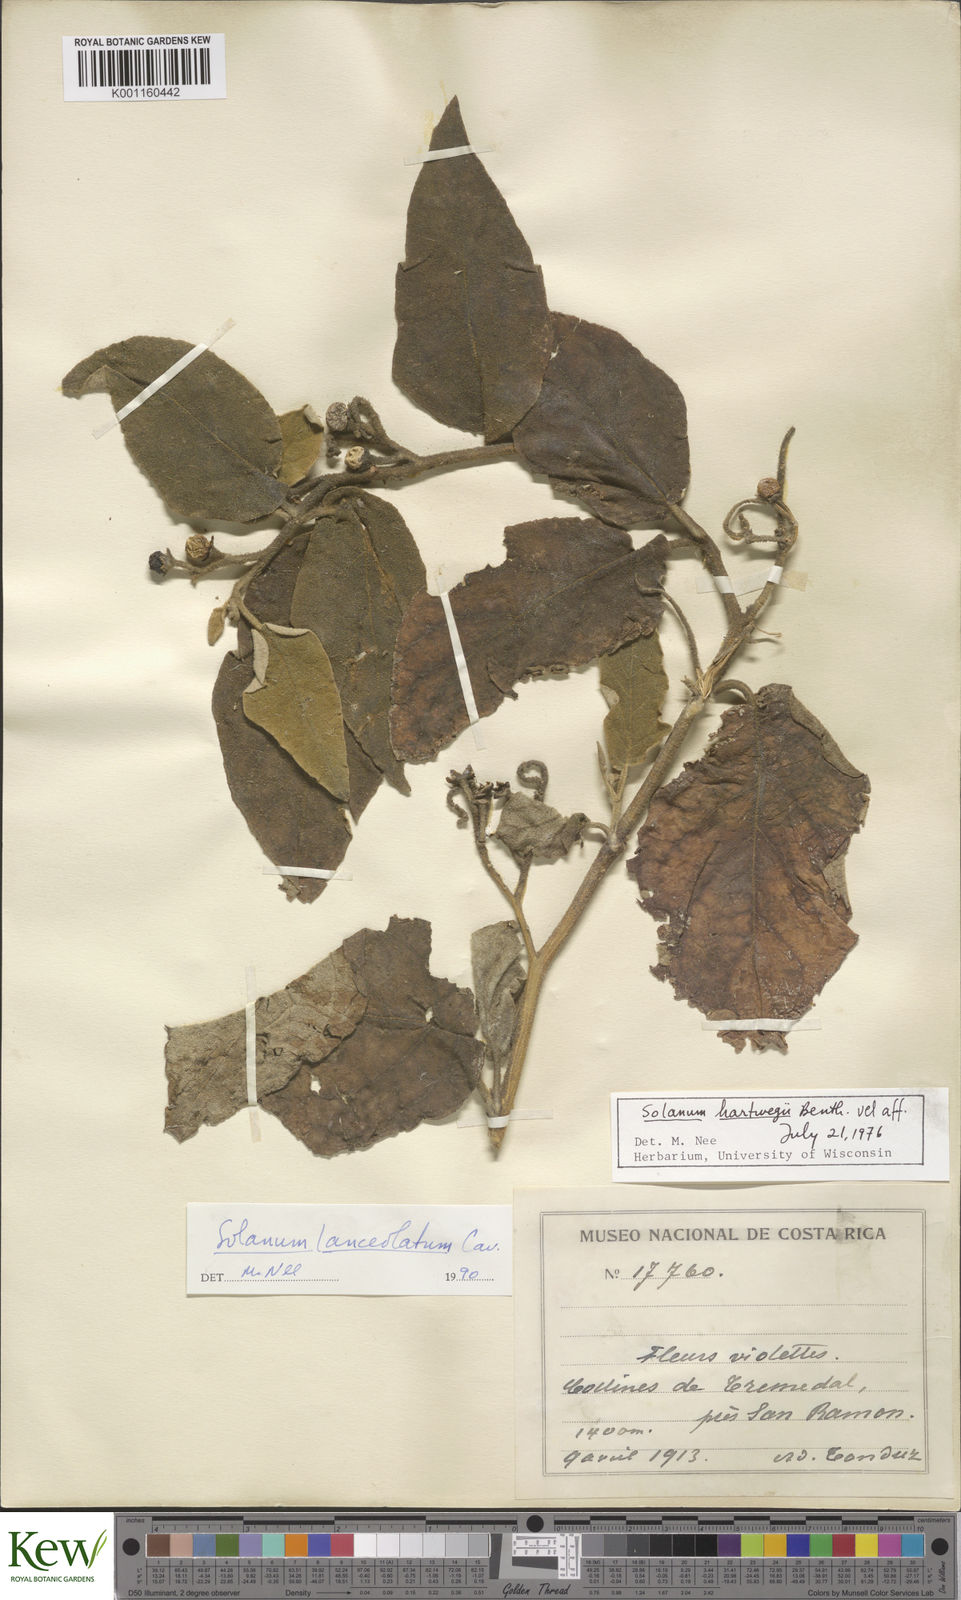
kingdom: Plantae
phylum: Tracheophyta
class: Magnoliopsida
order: Solanales
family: Solanaceae
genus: Solanum
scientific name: Solanum lanceolatum
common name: Orangeberry nightshade
